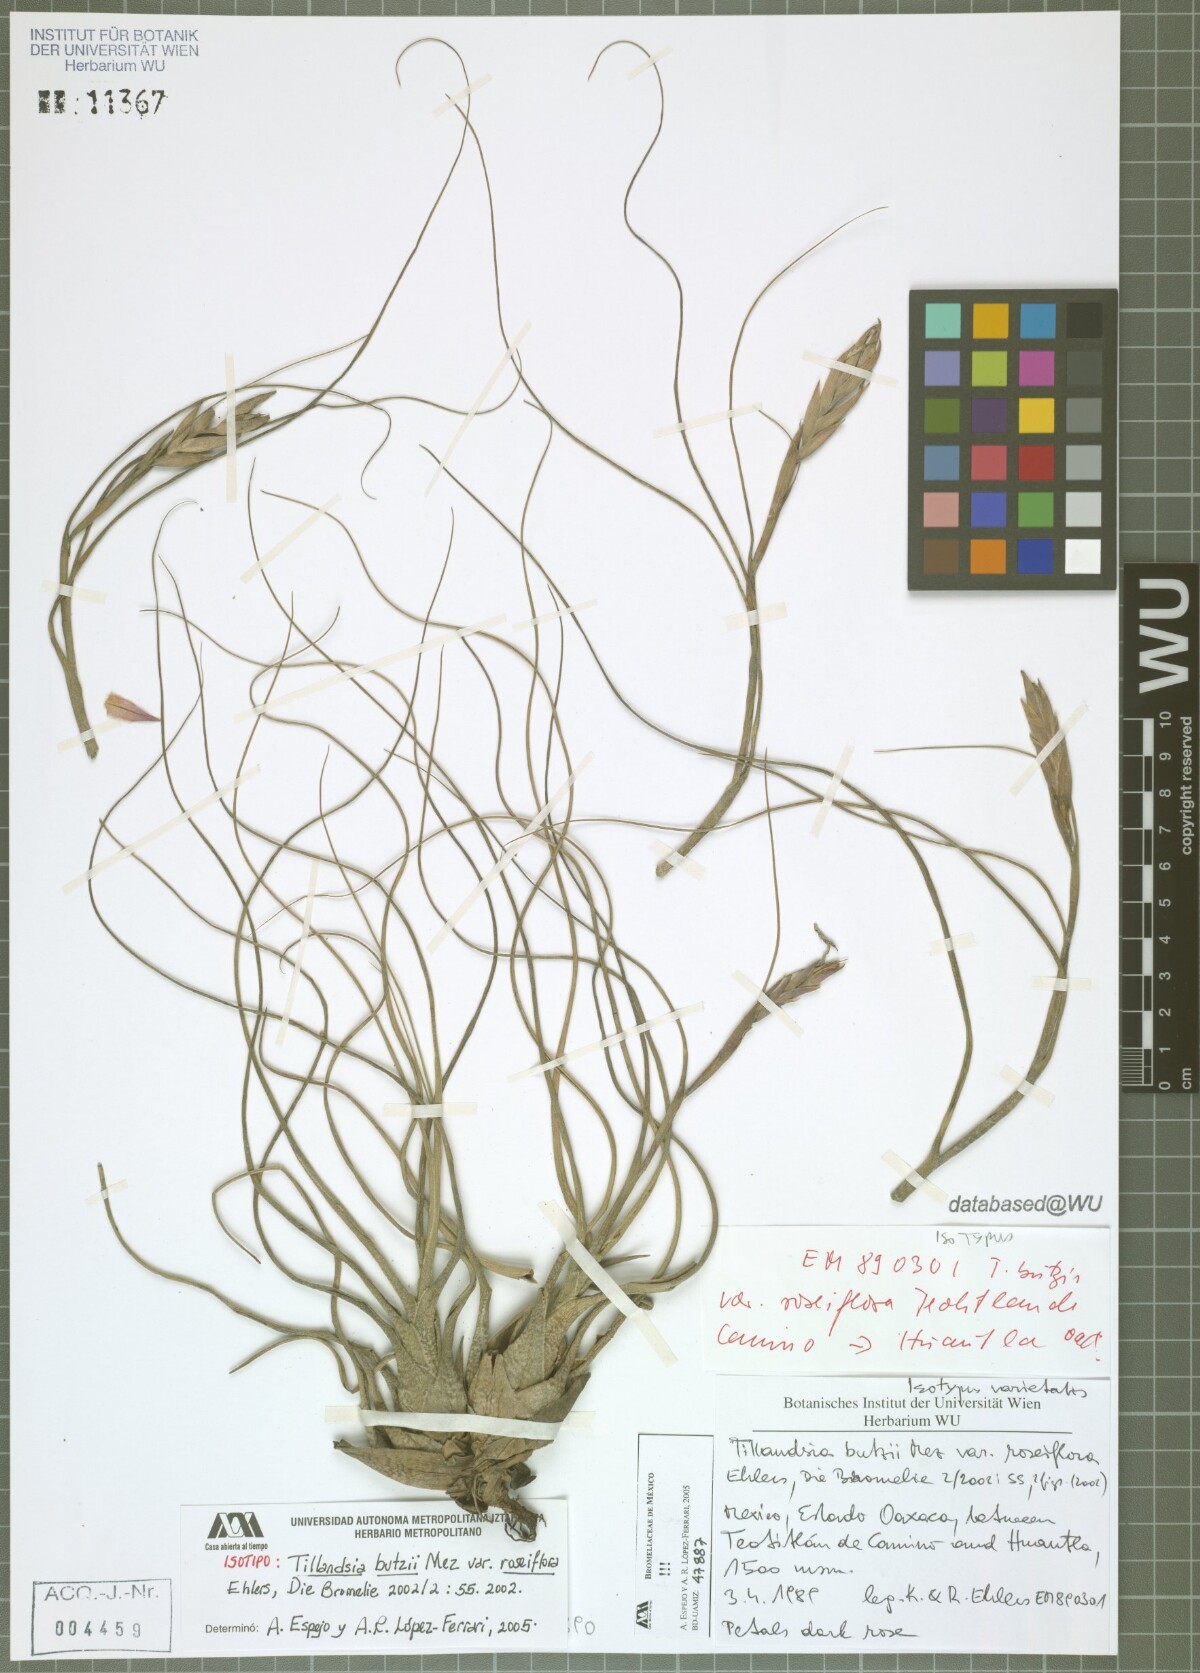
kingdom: Plantae
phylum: Tracheophyta
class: Liliopsida
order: Poales
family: Bromeliaceae
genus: Tillandsia
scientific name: Tillandsia butzii
